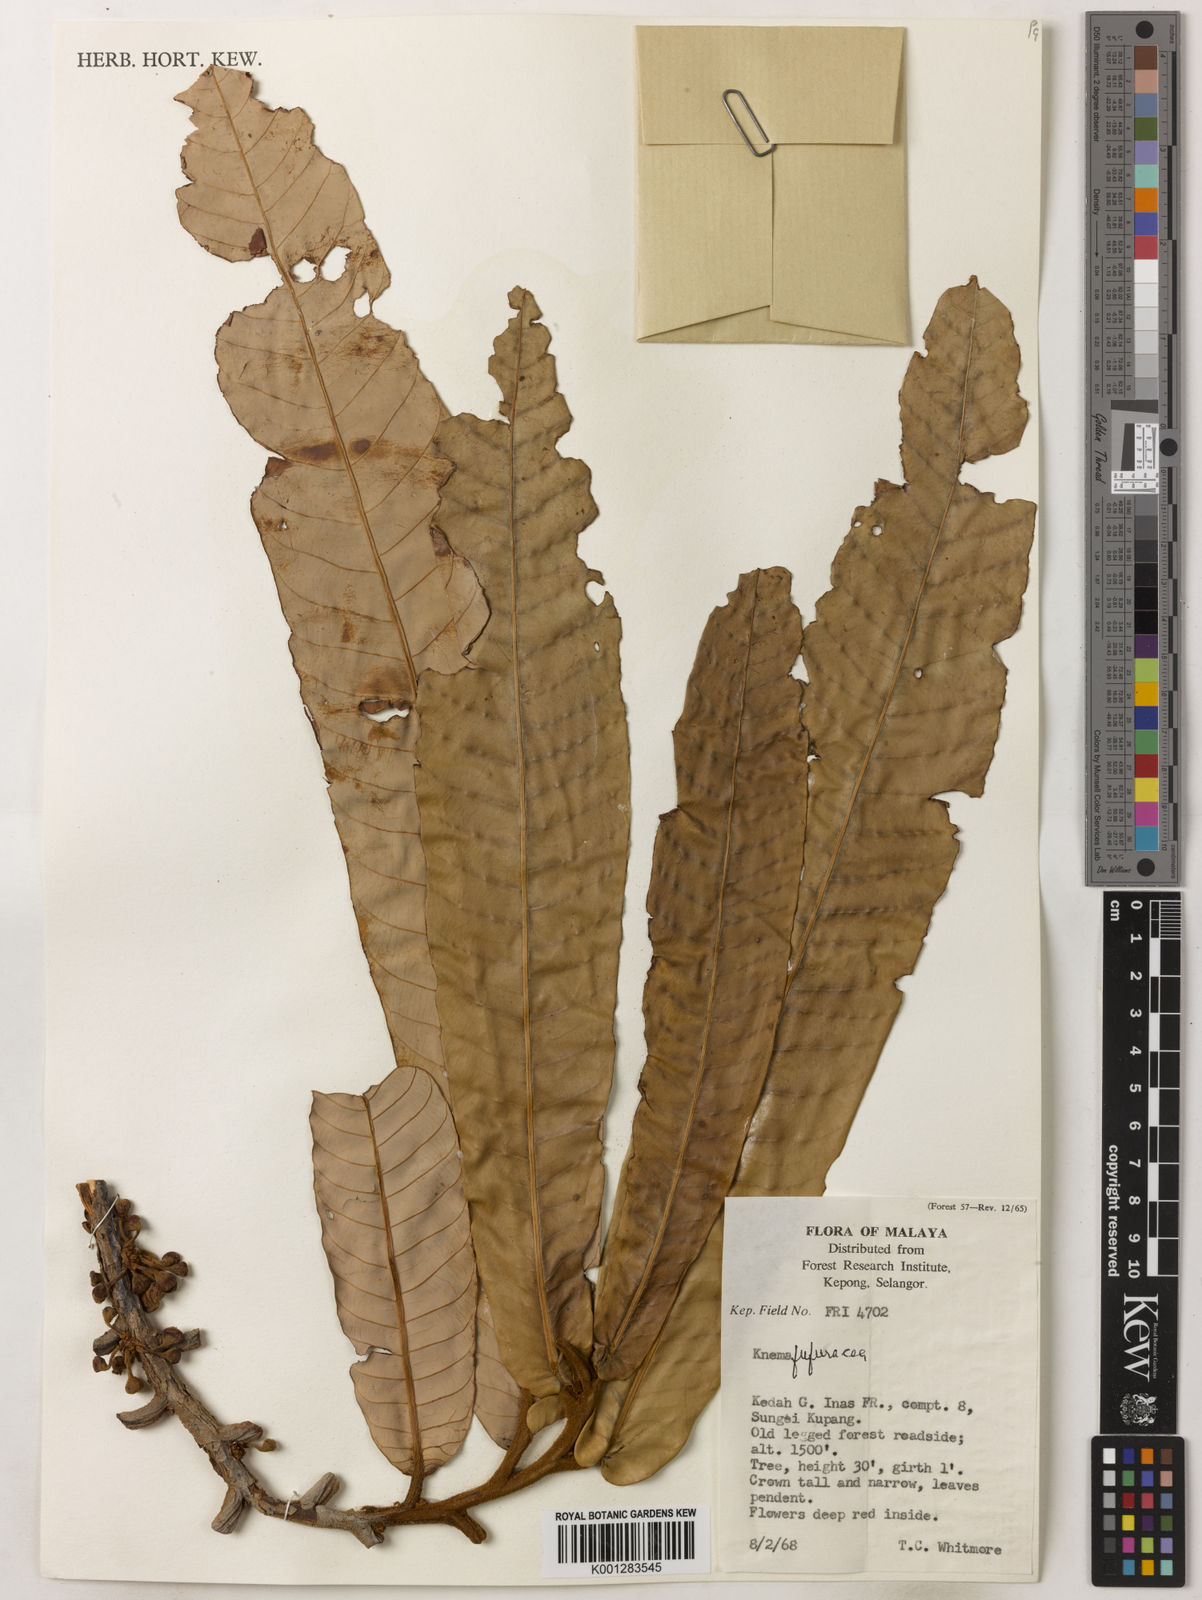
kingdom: Plantae
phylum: Tracheophyta
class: Magnoliopsida
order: Magnoliales
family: Myristicaceae
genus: Knema
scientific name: Knema furfuracea
